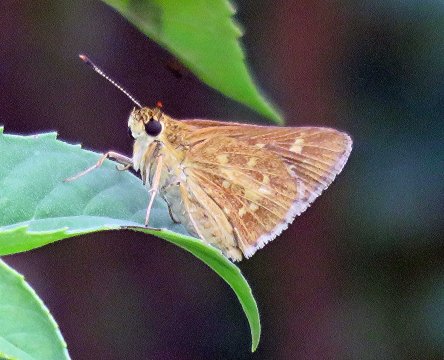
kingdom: Animalia
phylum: Arthropoda
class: Insecta
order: Lepidoptera
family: Hesperiidae
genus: Mastor
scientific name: Mastor carolina
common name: Reversed Roadside-skipper
